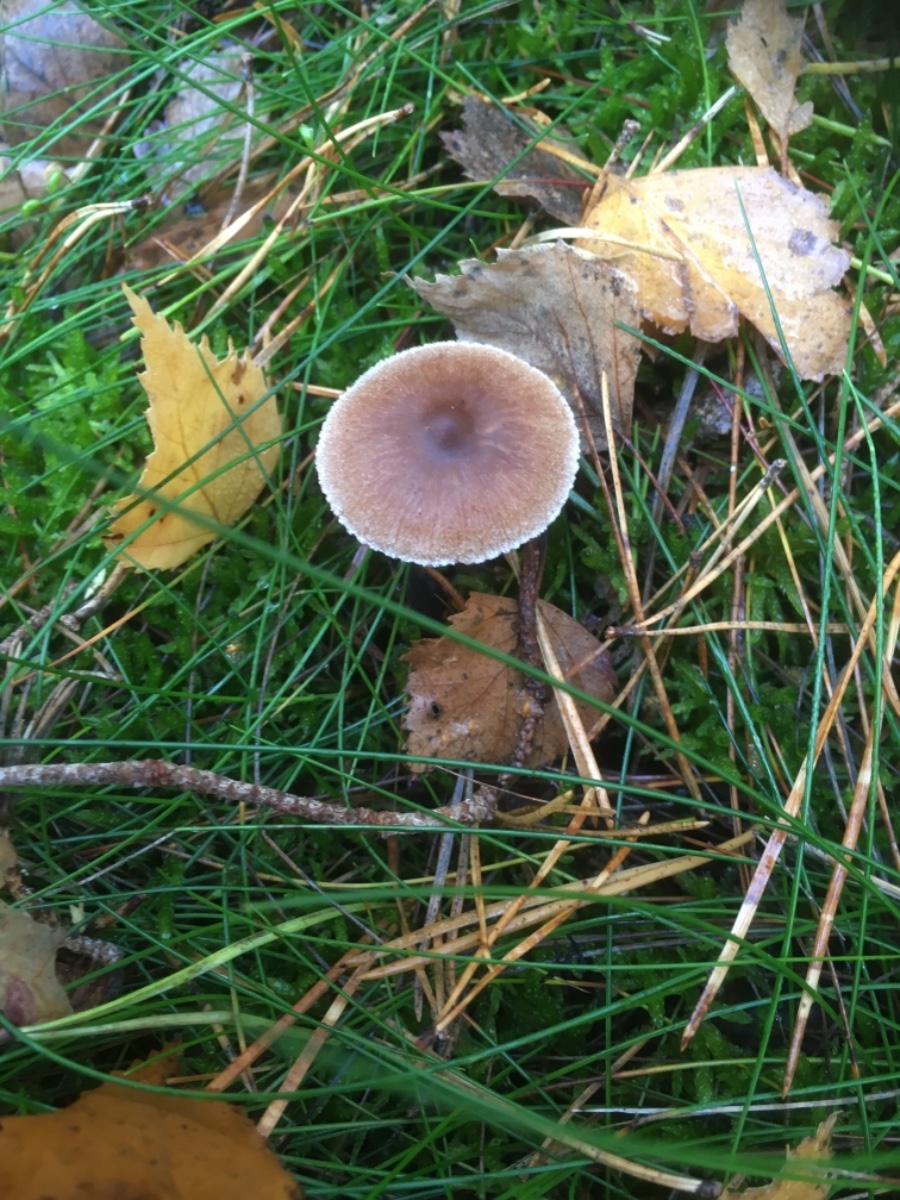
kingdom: Fungi
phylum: Basidiomycota
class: Agaricomycetes
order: Agaricales
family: Cortinariaceae
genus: Cortinarius
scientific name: Cortinarius
